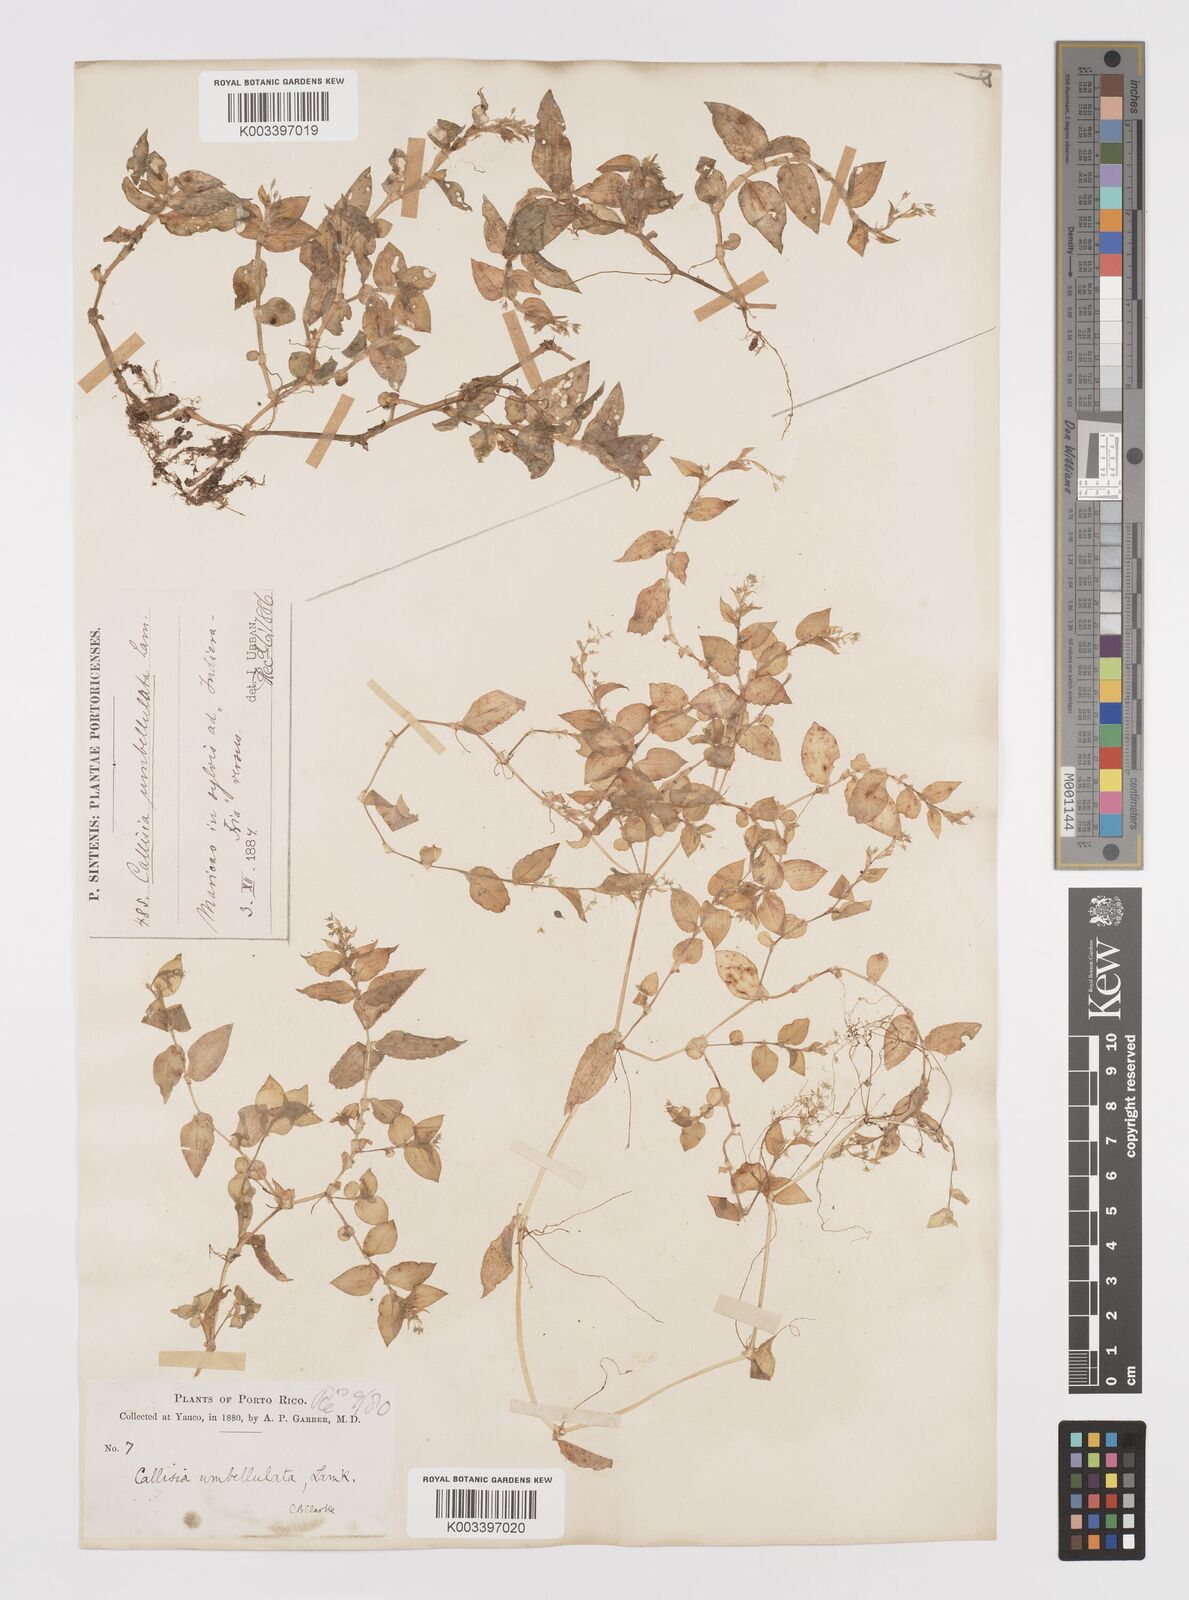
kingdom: Plantae
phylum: Tracheophyta
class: Liliopsida
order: Commelinales
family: Commelinaceae
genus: Callisia
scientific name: Callisia monandra
